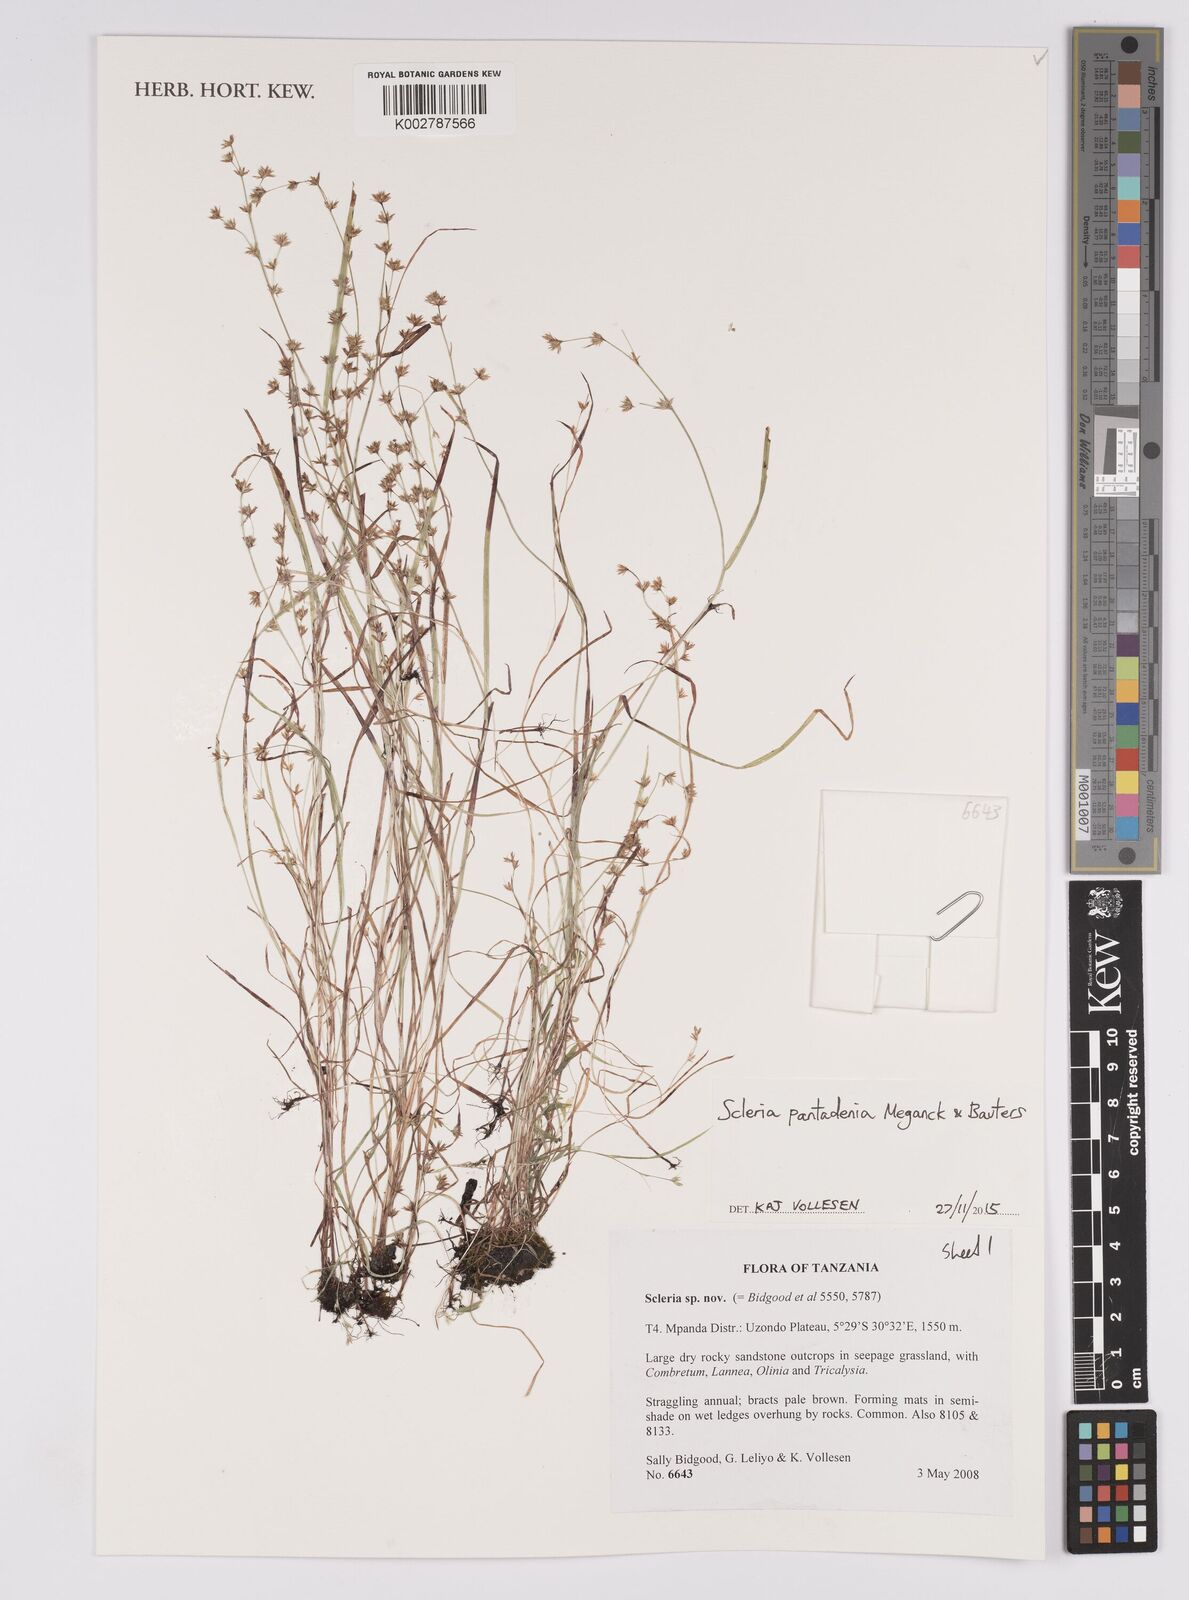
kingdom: Plantae
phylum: Tracheophyta
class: Liliopsida
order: Poales
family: Cyperaceae
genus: Scleria
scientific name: Scleria pantadenia
